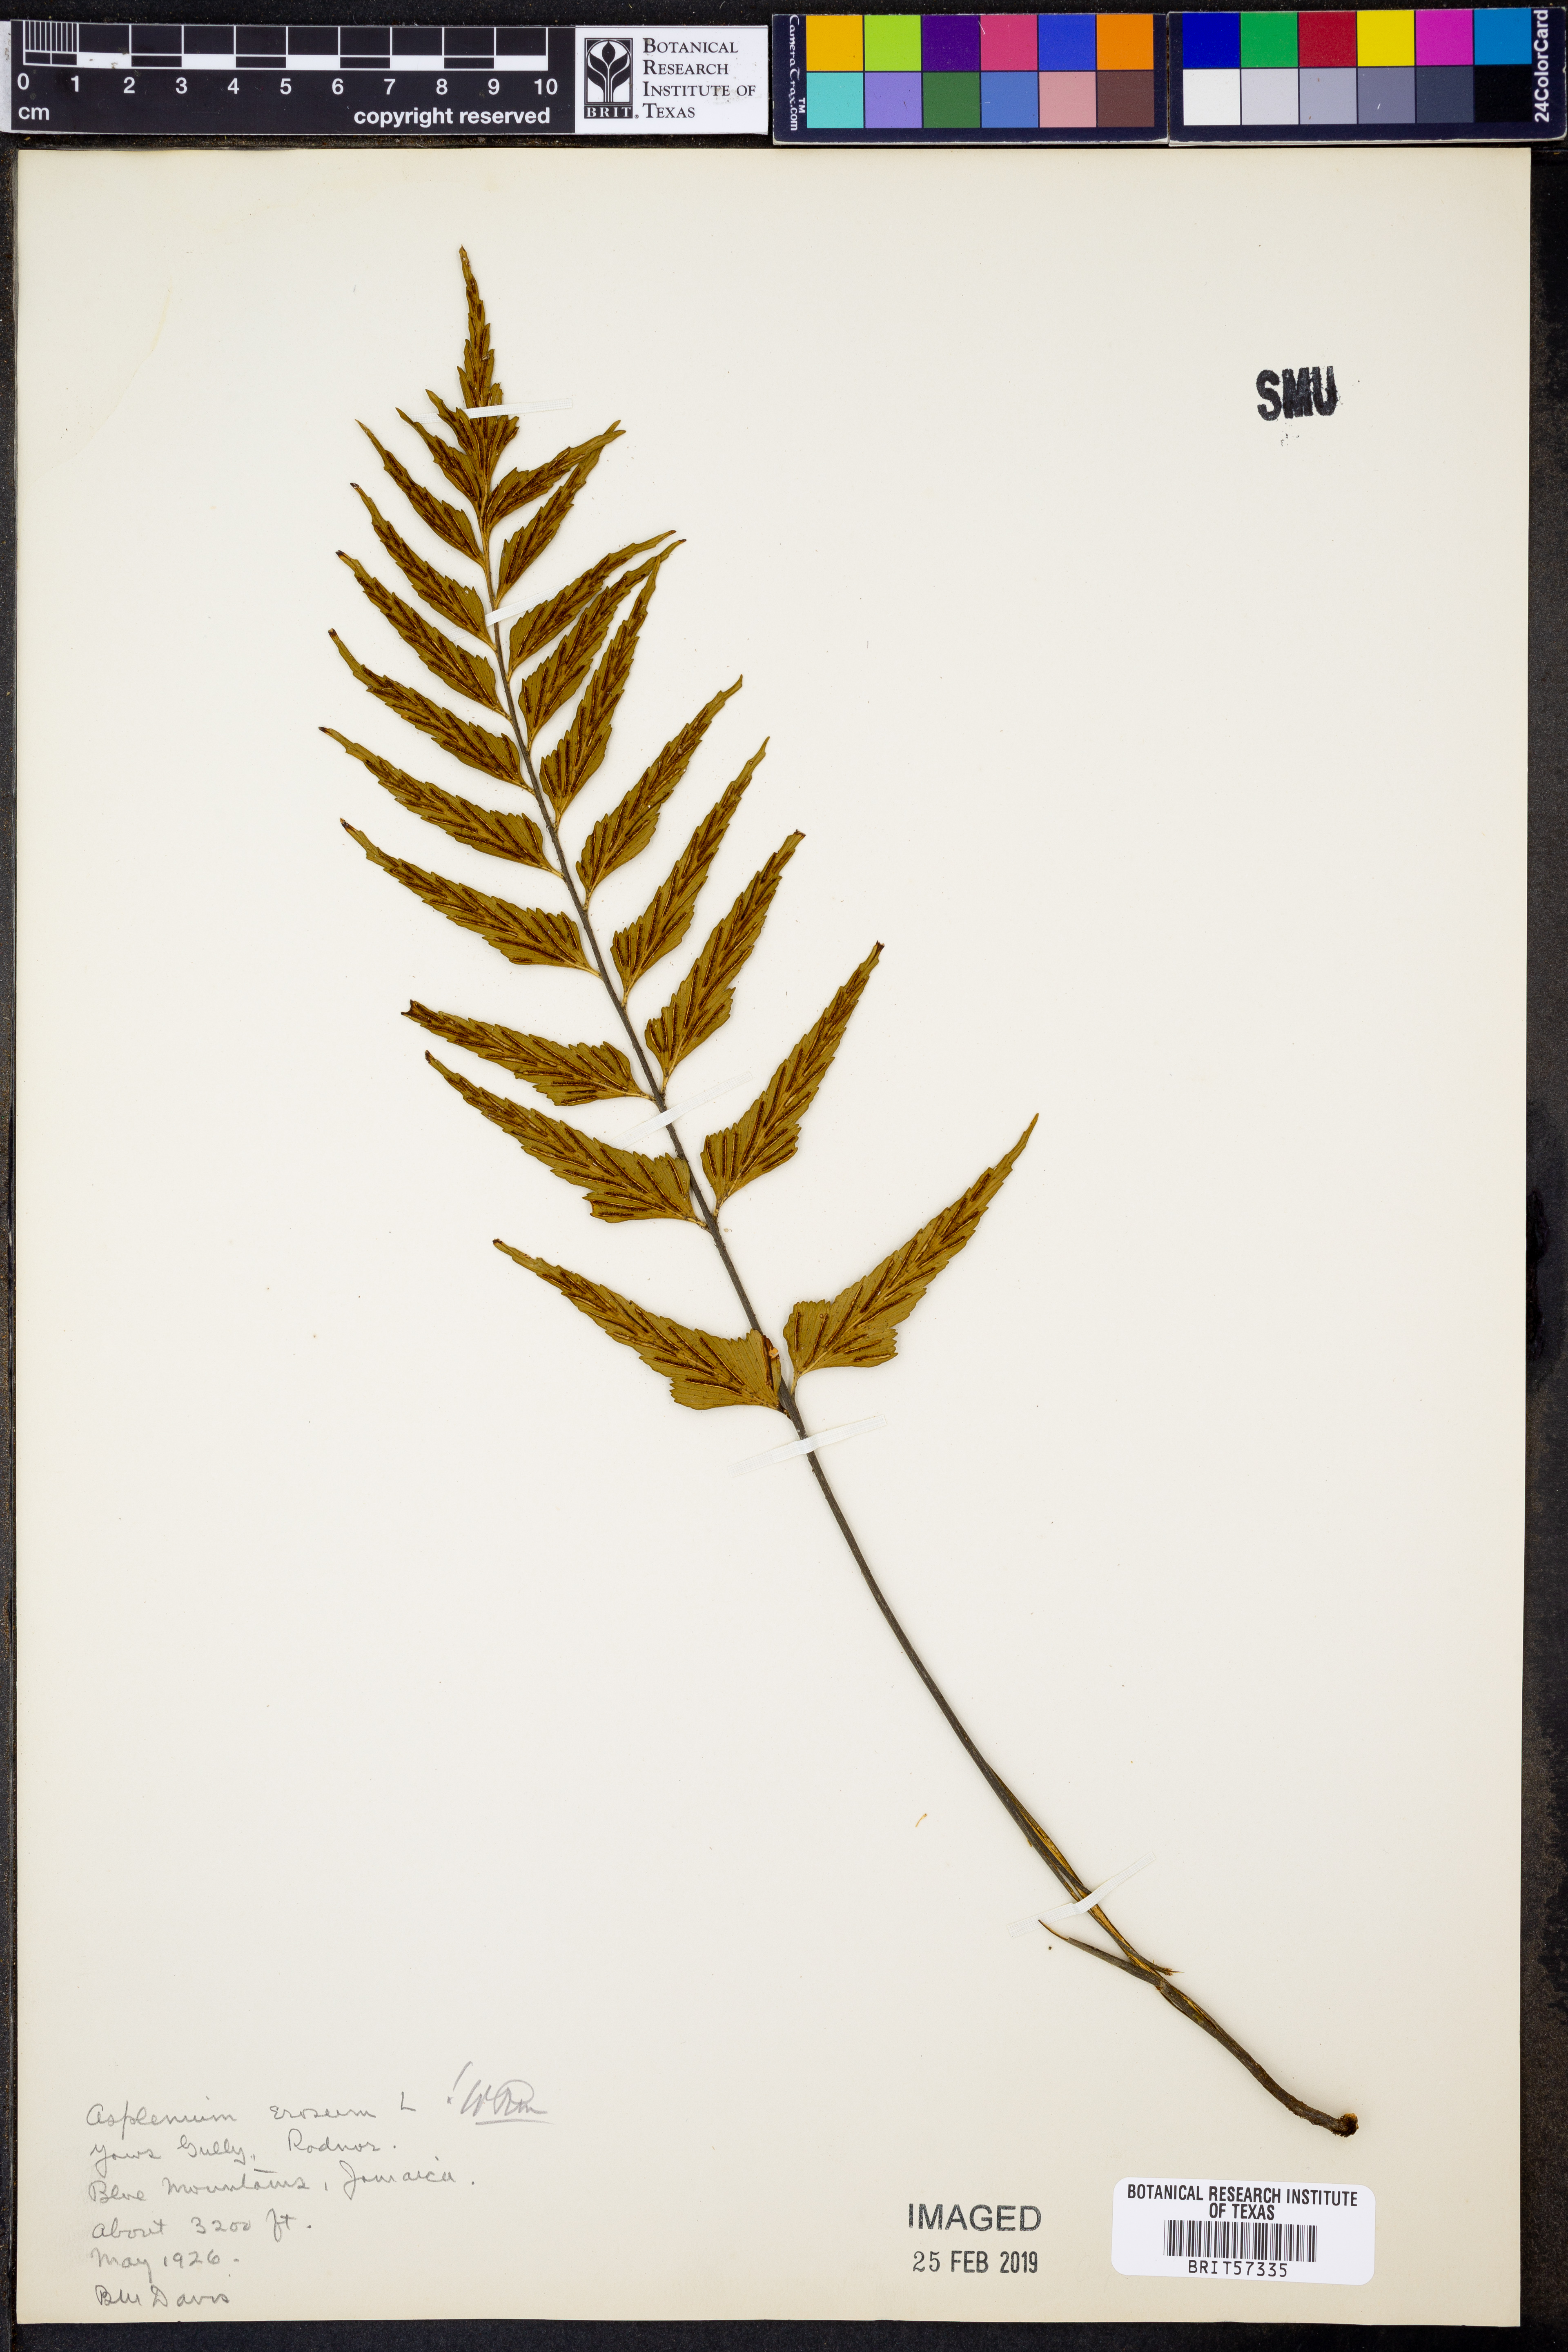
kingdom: Plantae
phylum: Tracheophyta
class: Polypodiopsida
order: Polypodiales
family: Aspleniaceae
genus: Asplenium
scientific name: Asplenium erosum
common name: Eared spleenwort
